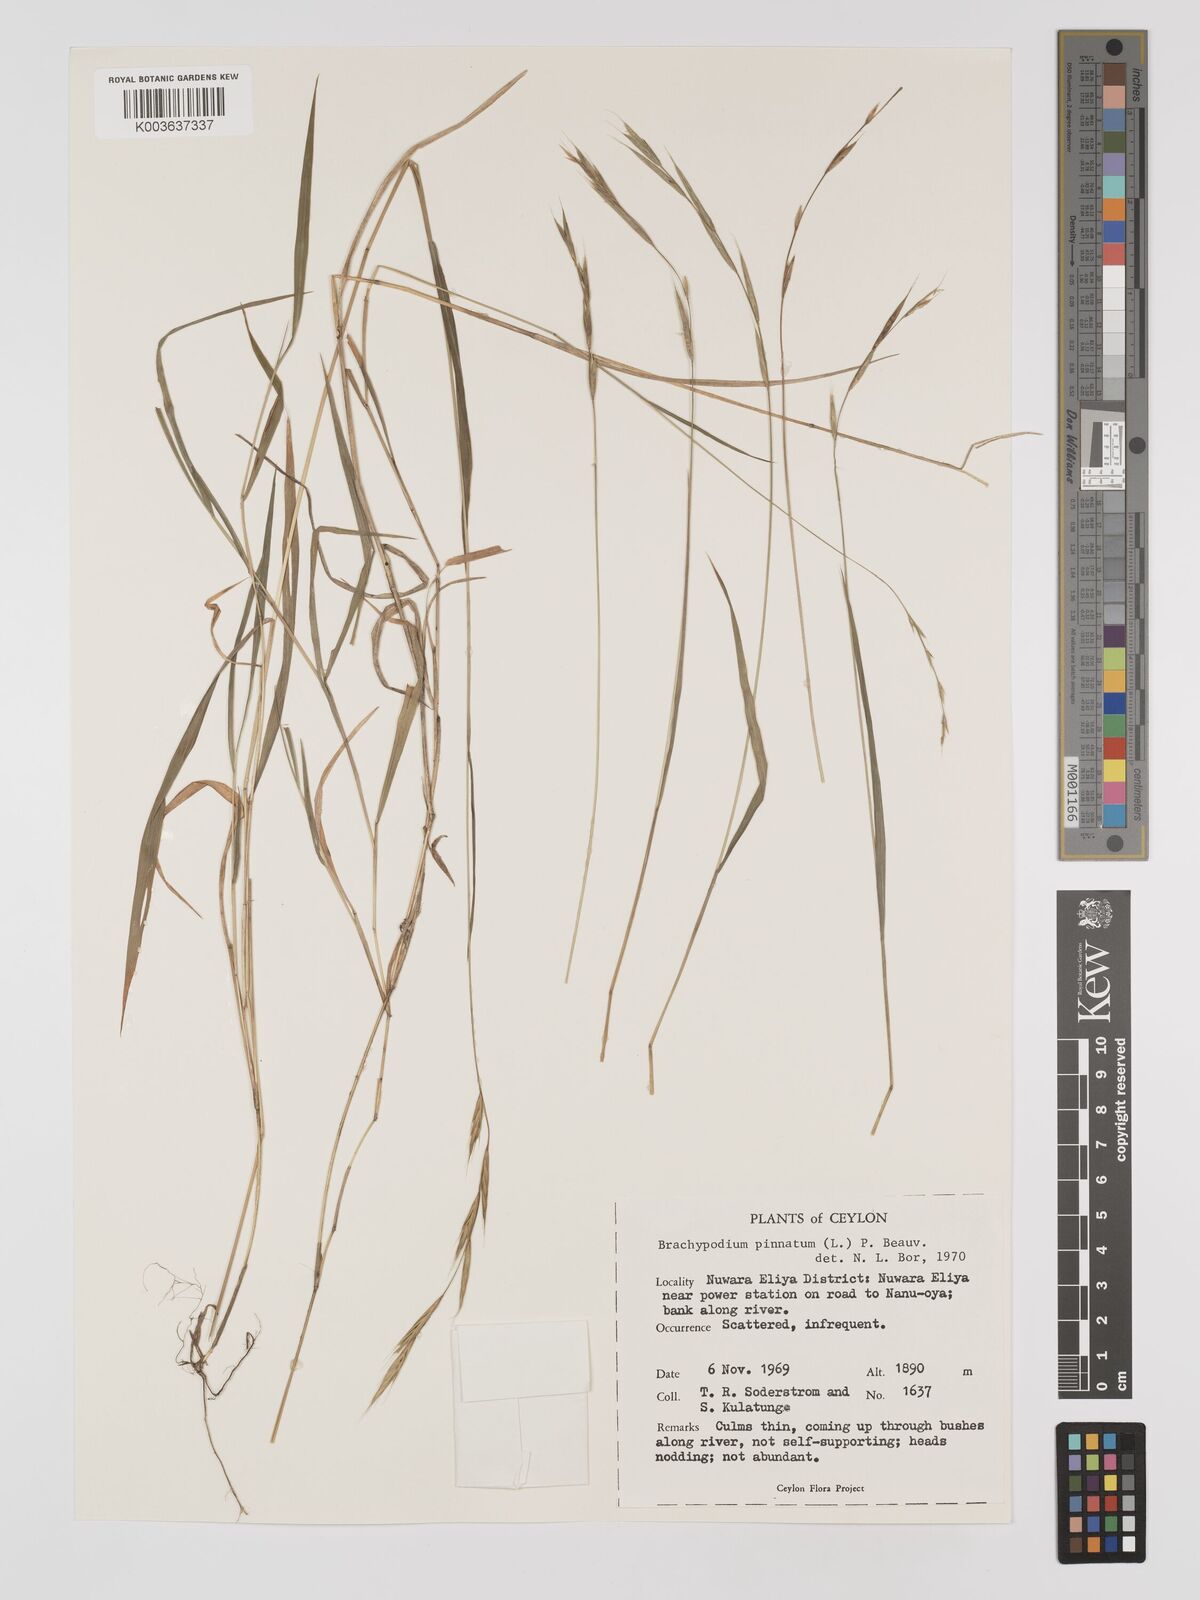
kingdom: Plantae
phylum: Tracheophyta
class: Liliopsida
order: Poales
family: Poaceae
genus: Brachypodium
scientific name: Brachypodium pinnatum
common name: Tor grass
